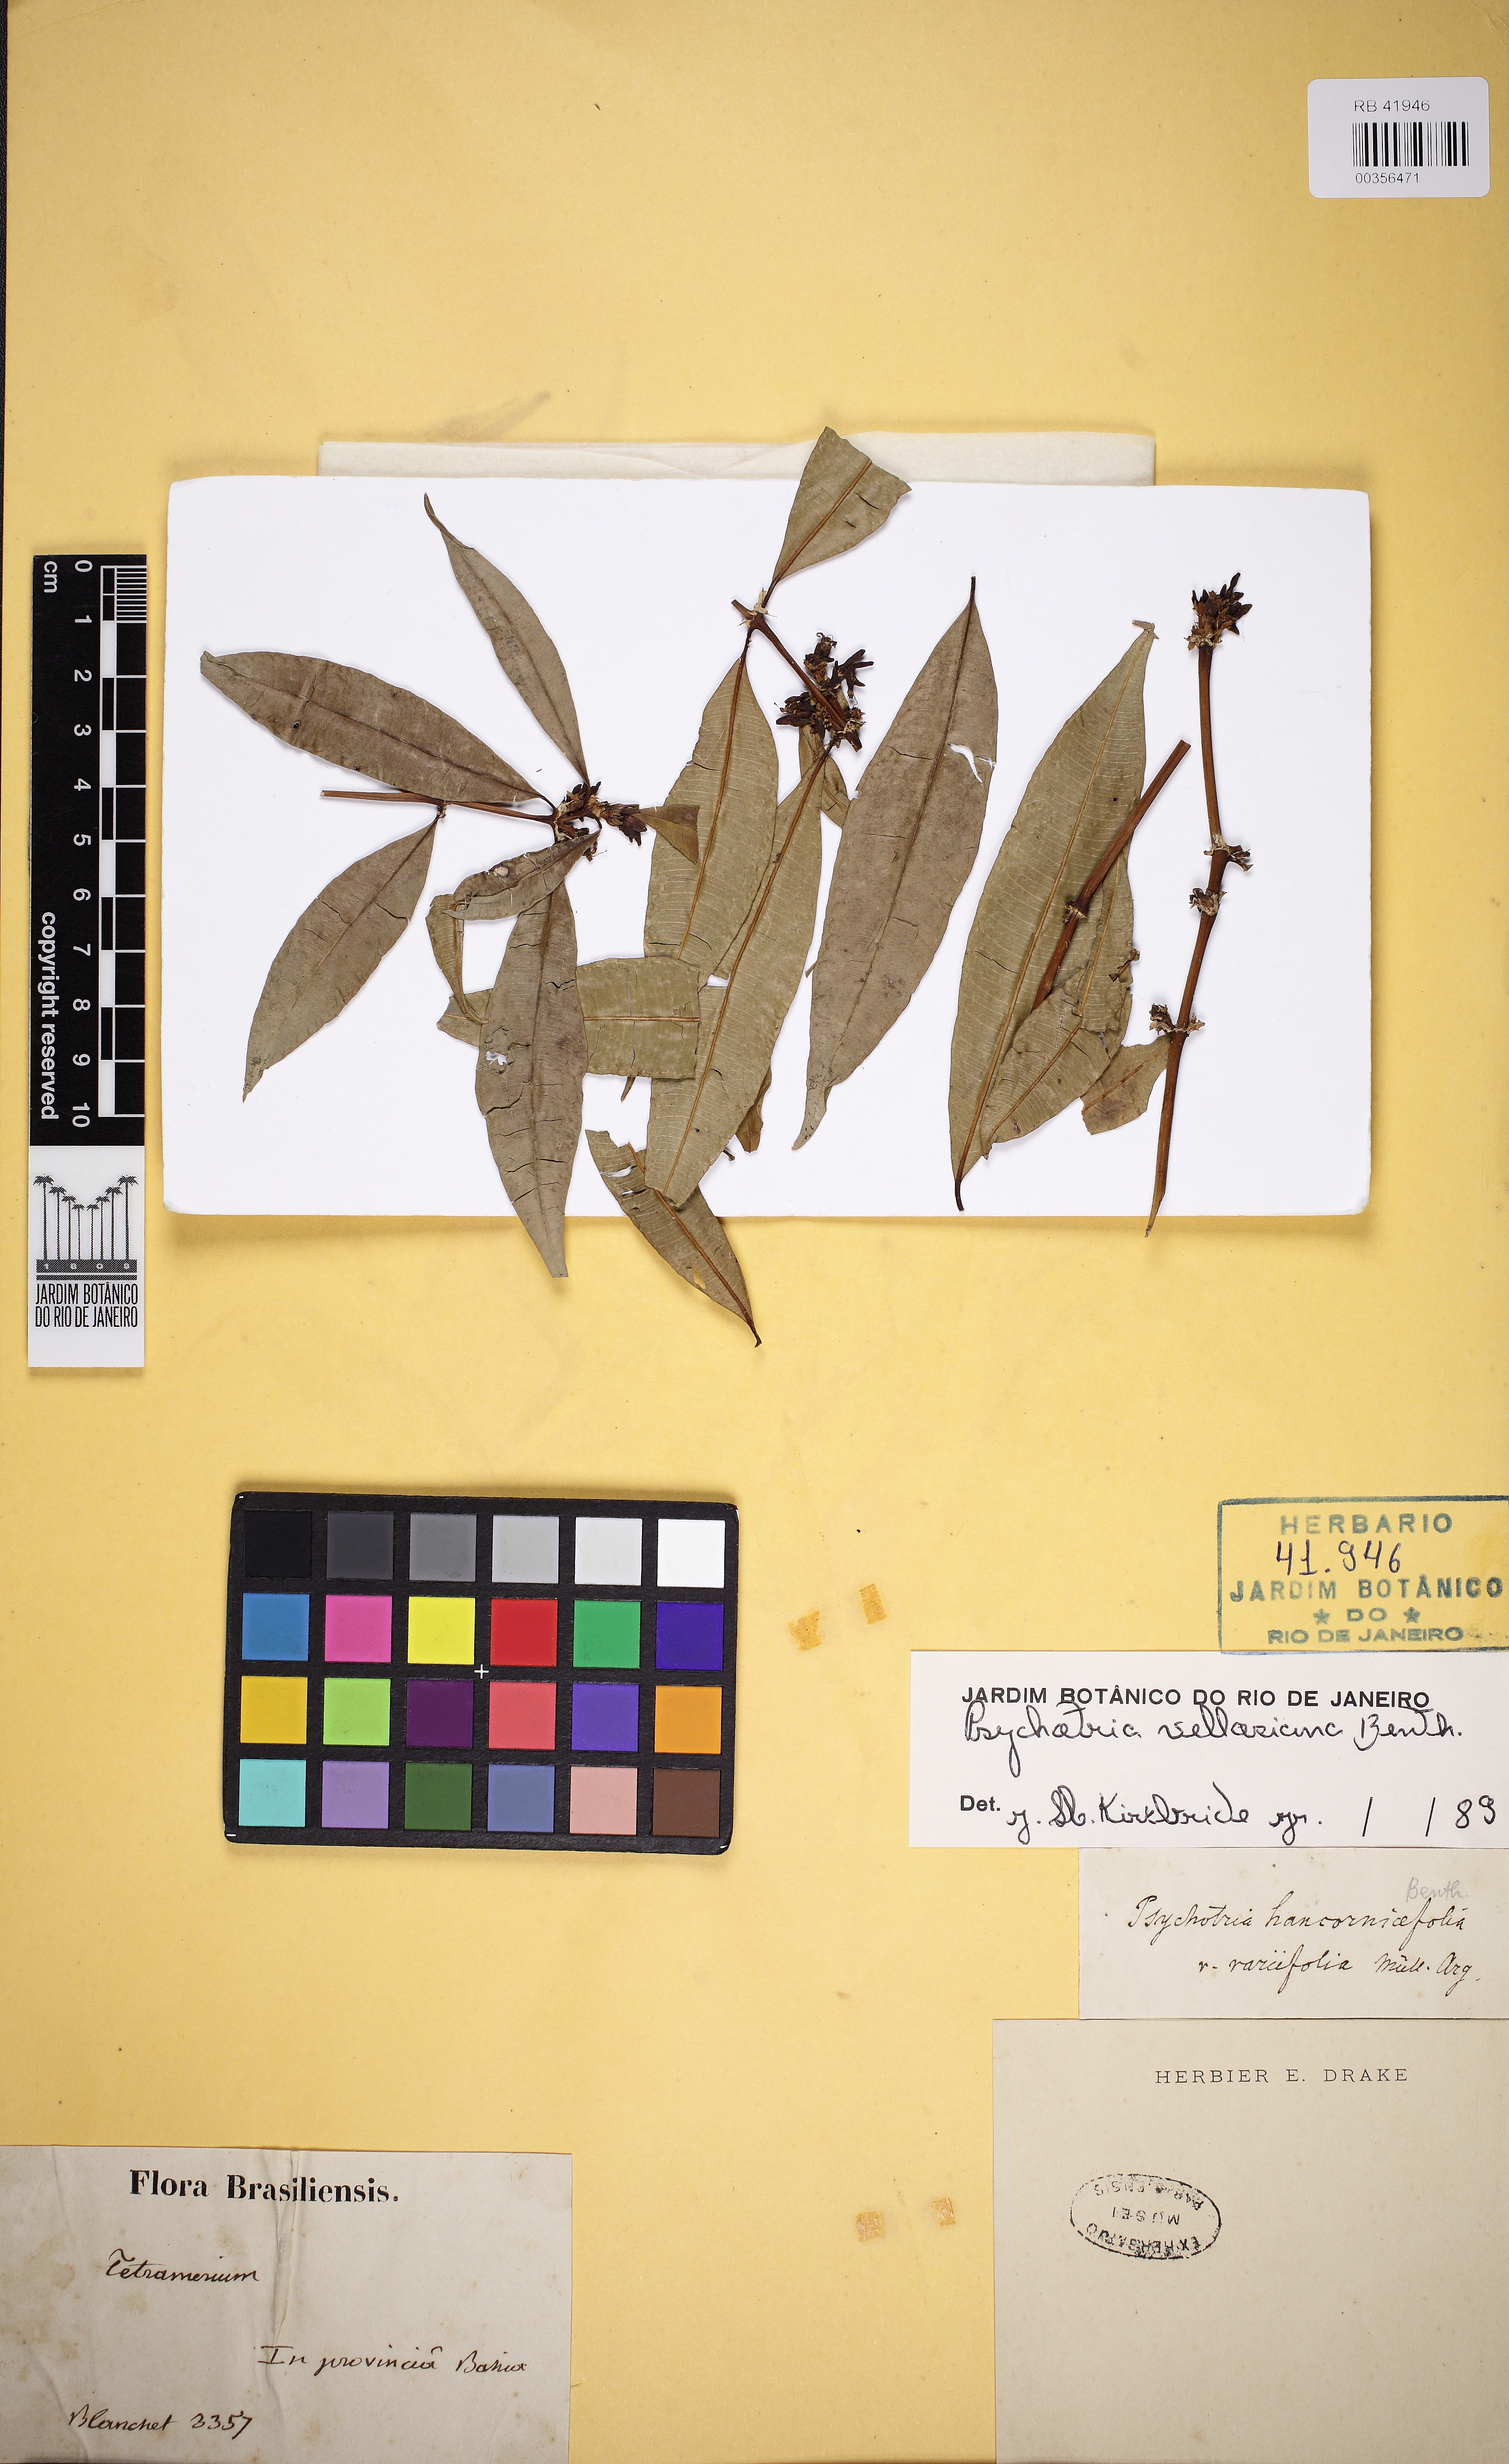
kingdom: Plantae
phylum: Tracheophyta
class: Magnoliopsida
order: Gentianales
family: Rubiaceae
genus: Palicourea
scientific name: Palicourea sessilis
